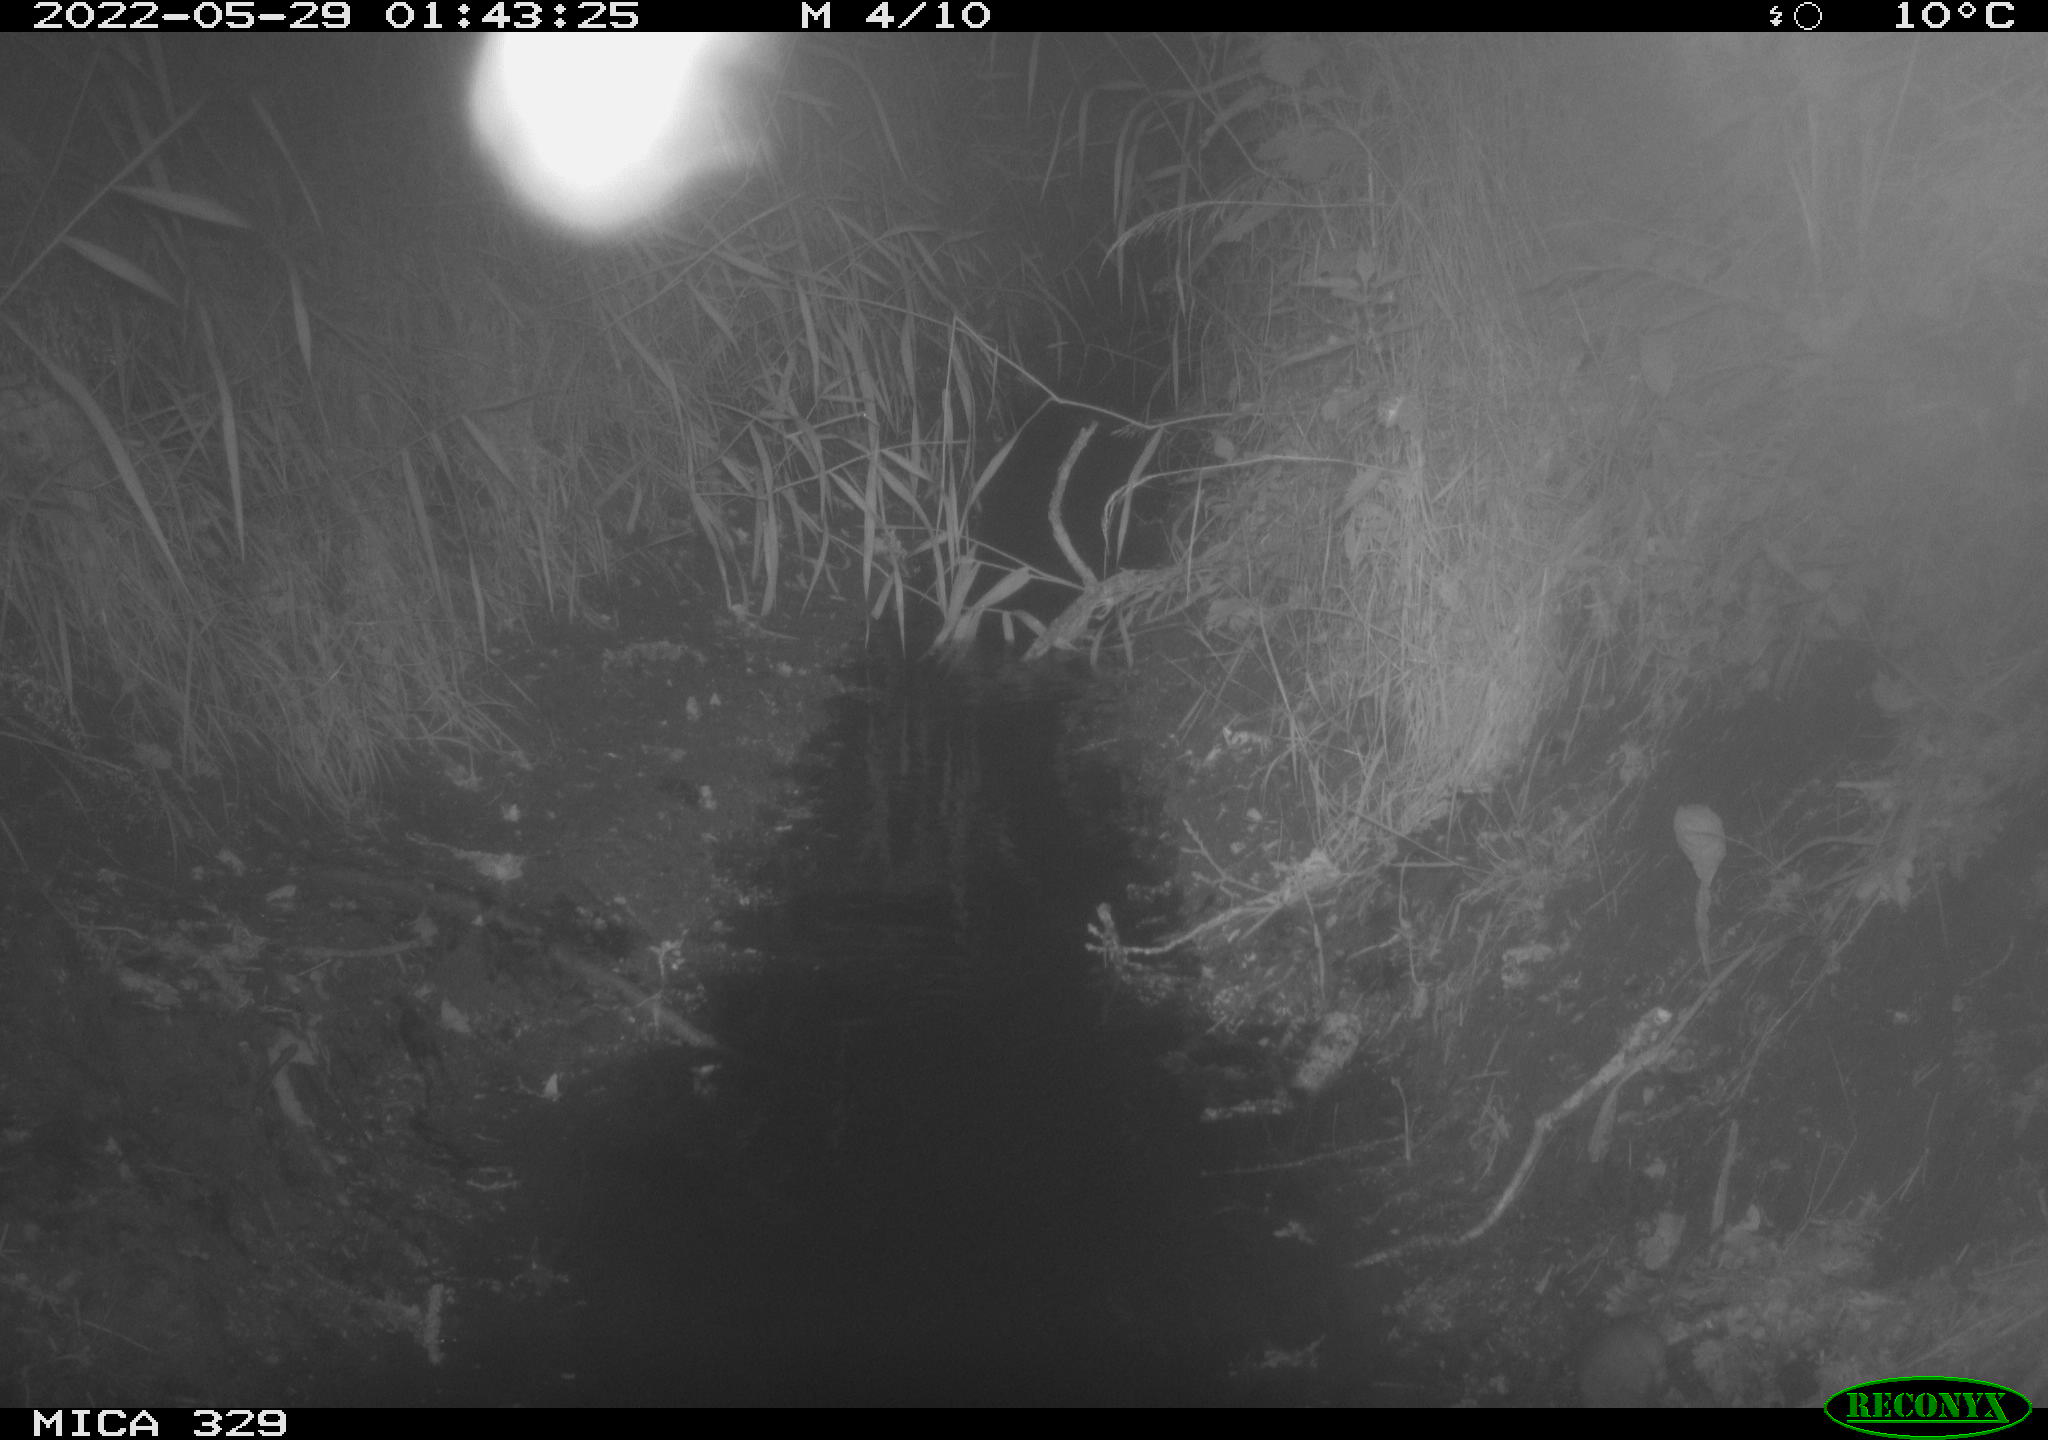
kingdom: Animalia
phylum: Chordata
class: Mammalia
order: Rodentia
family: Muridae
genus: Rattus
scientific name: Rattus norvegicus
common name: Brown rat
